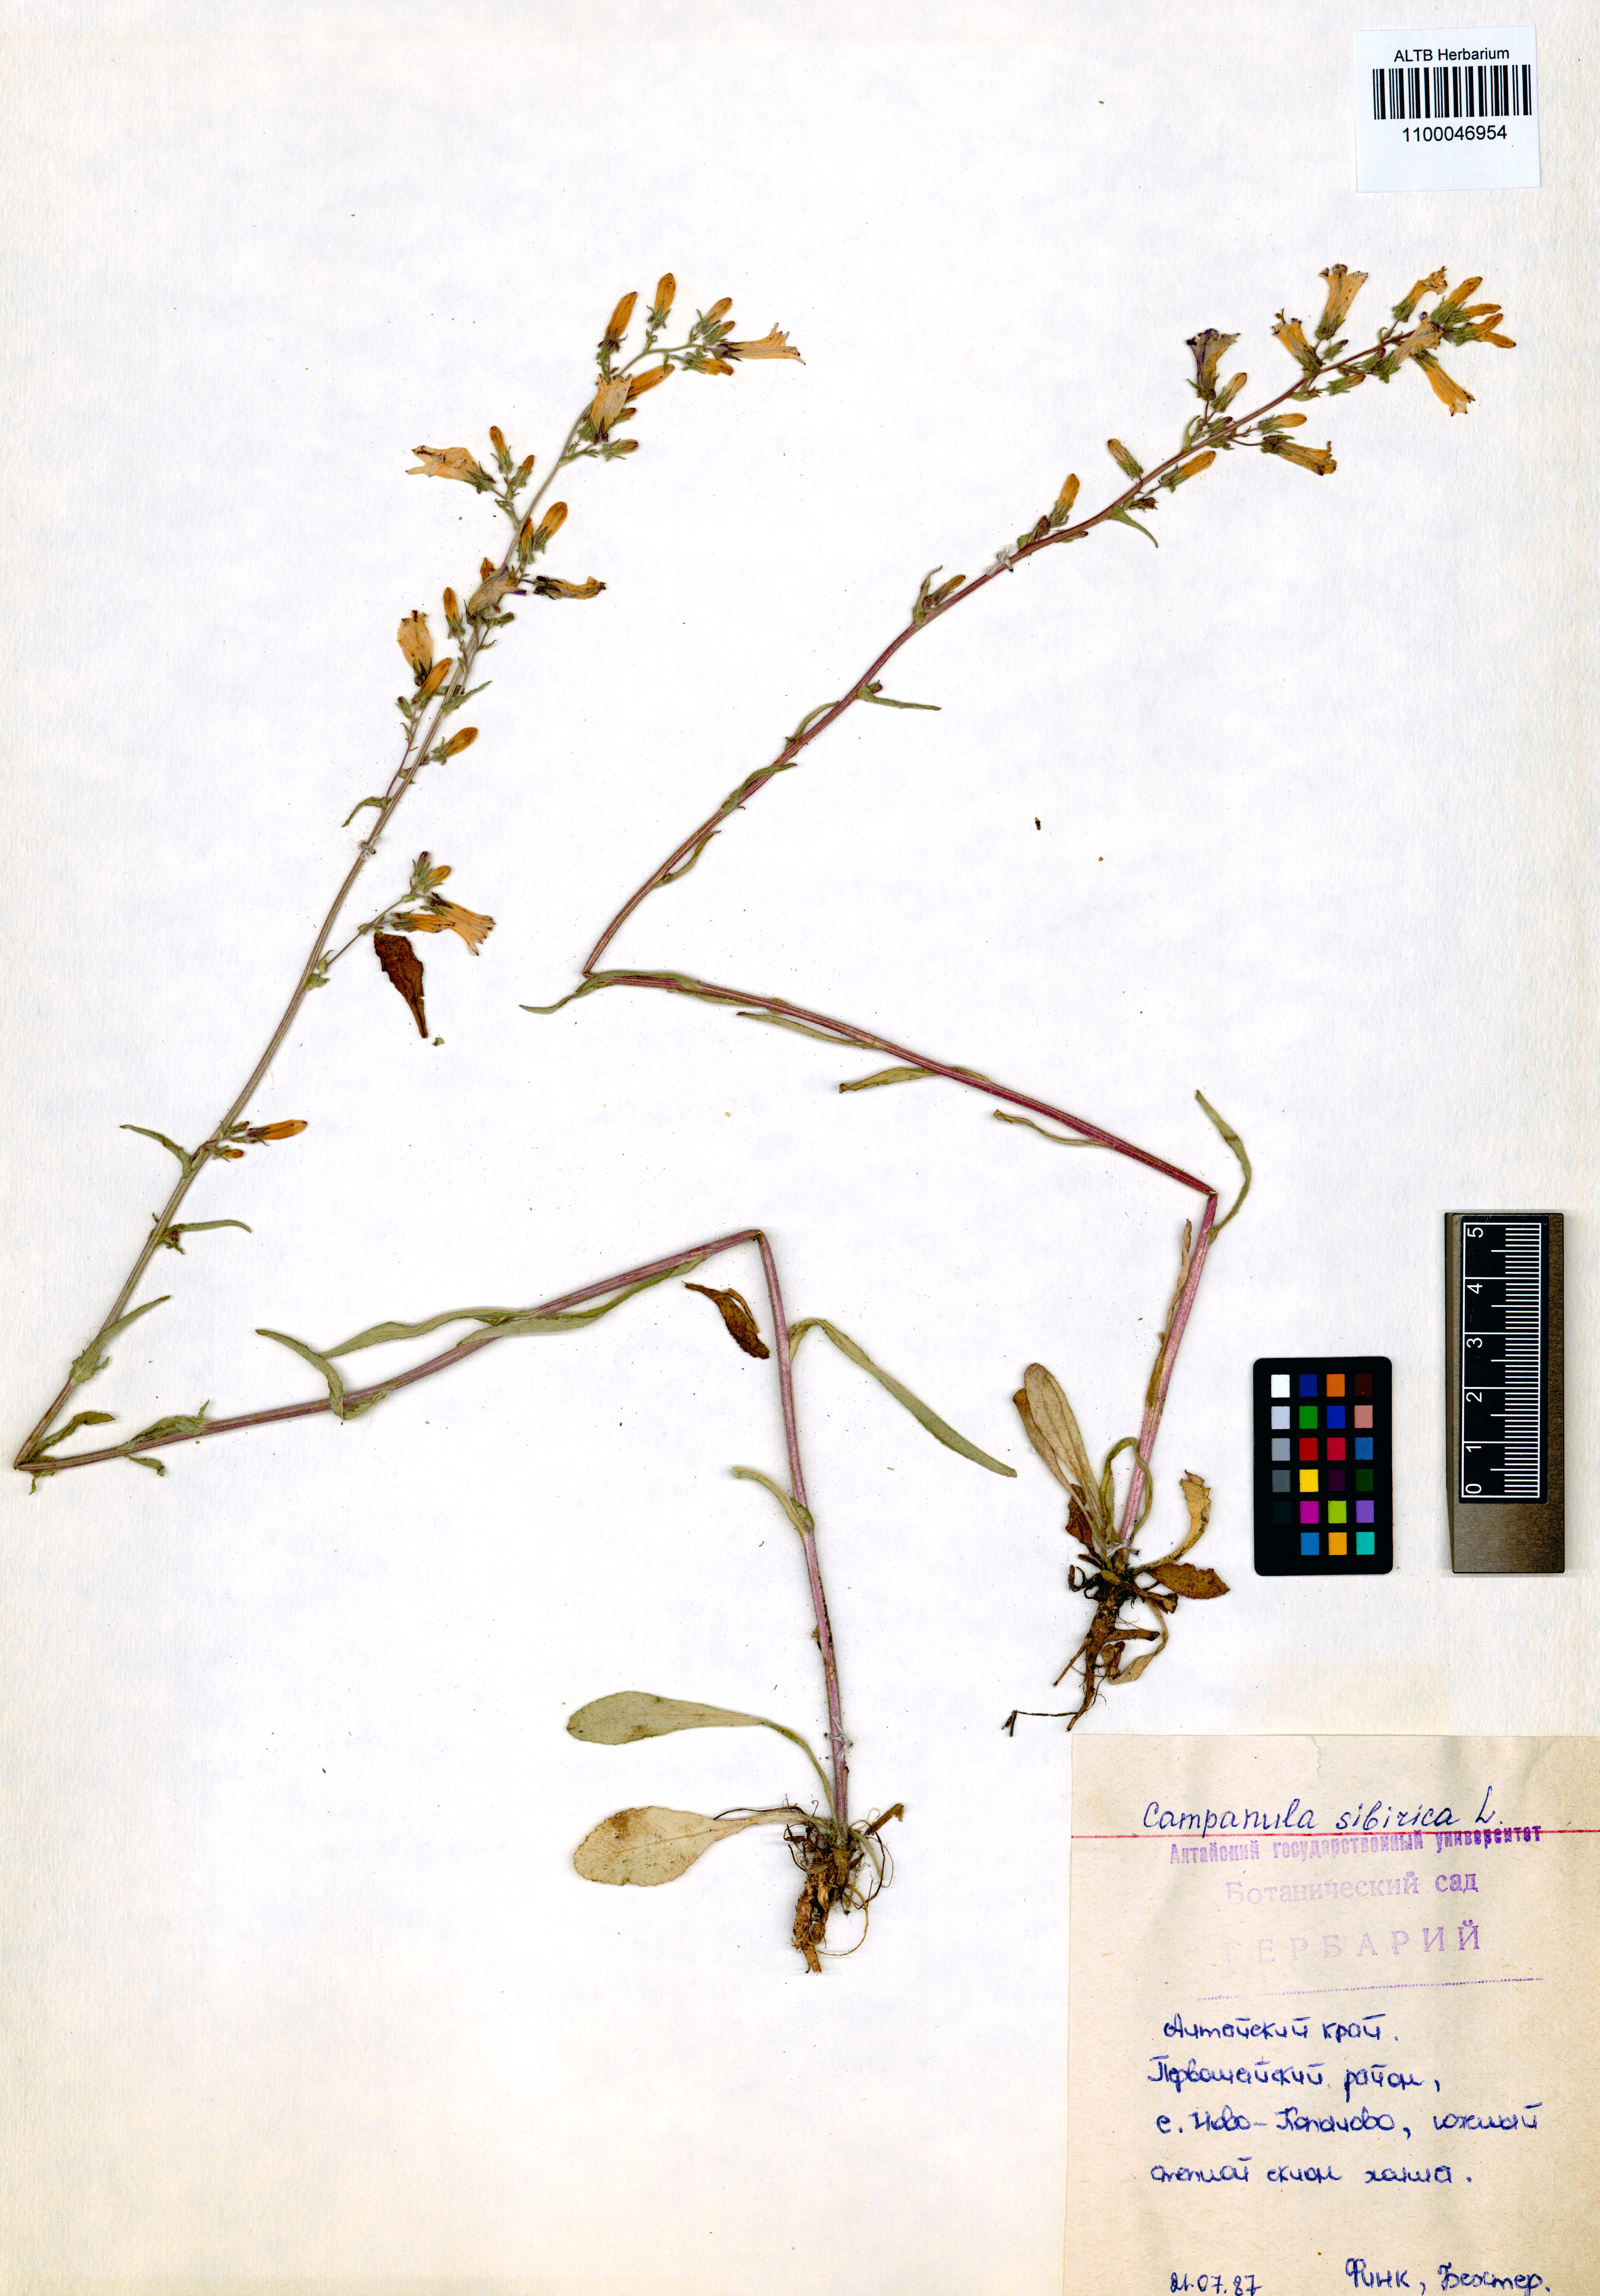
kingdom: Plantae
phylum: Tracheophyta
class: Magnoliopsida
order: Asterales
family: Campanulaceae
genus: Campanula
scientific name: Campanula sibirica
